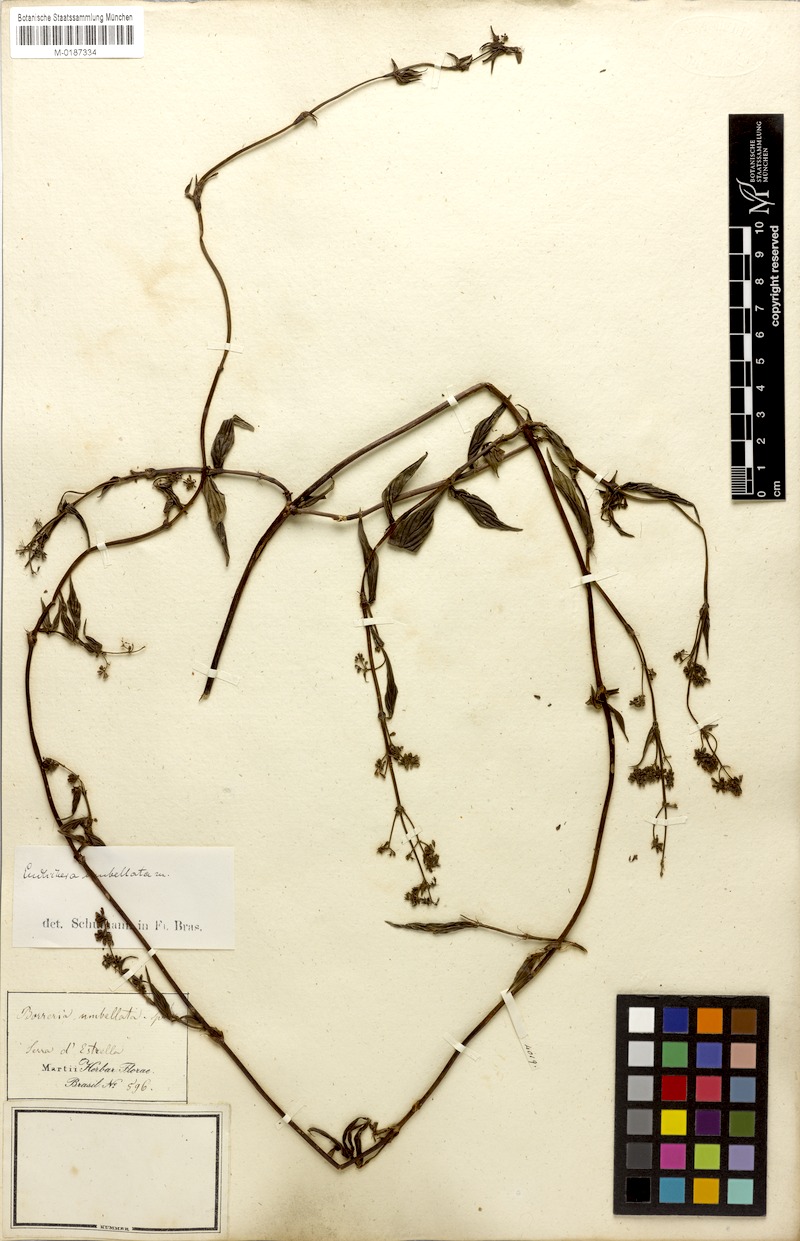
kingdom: Plantae
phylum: Tracheophyta
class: Magnoliopsida
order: Gentianales
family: Rubiaceae
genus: Emmeorhiza
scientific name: Emmeorhiza umbellata
